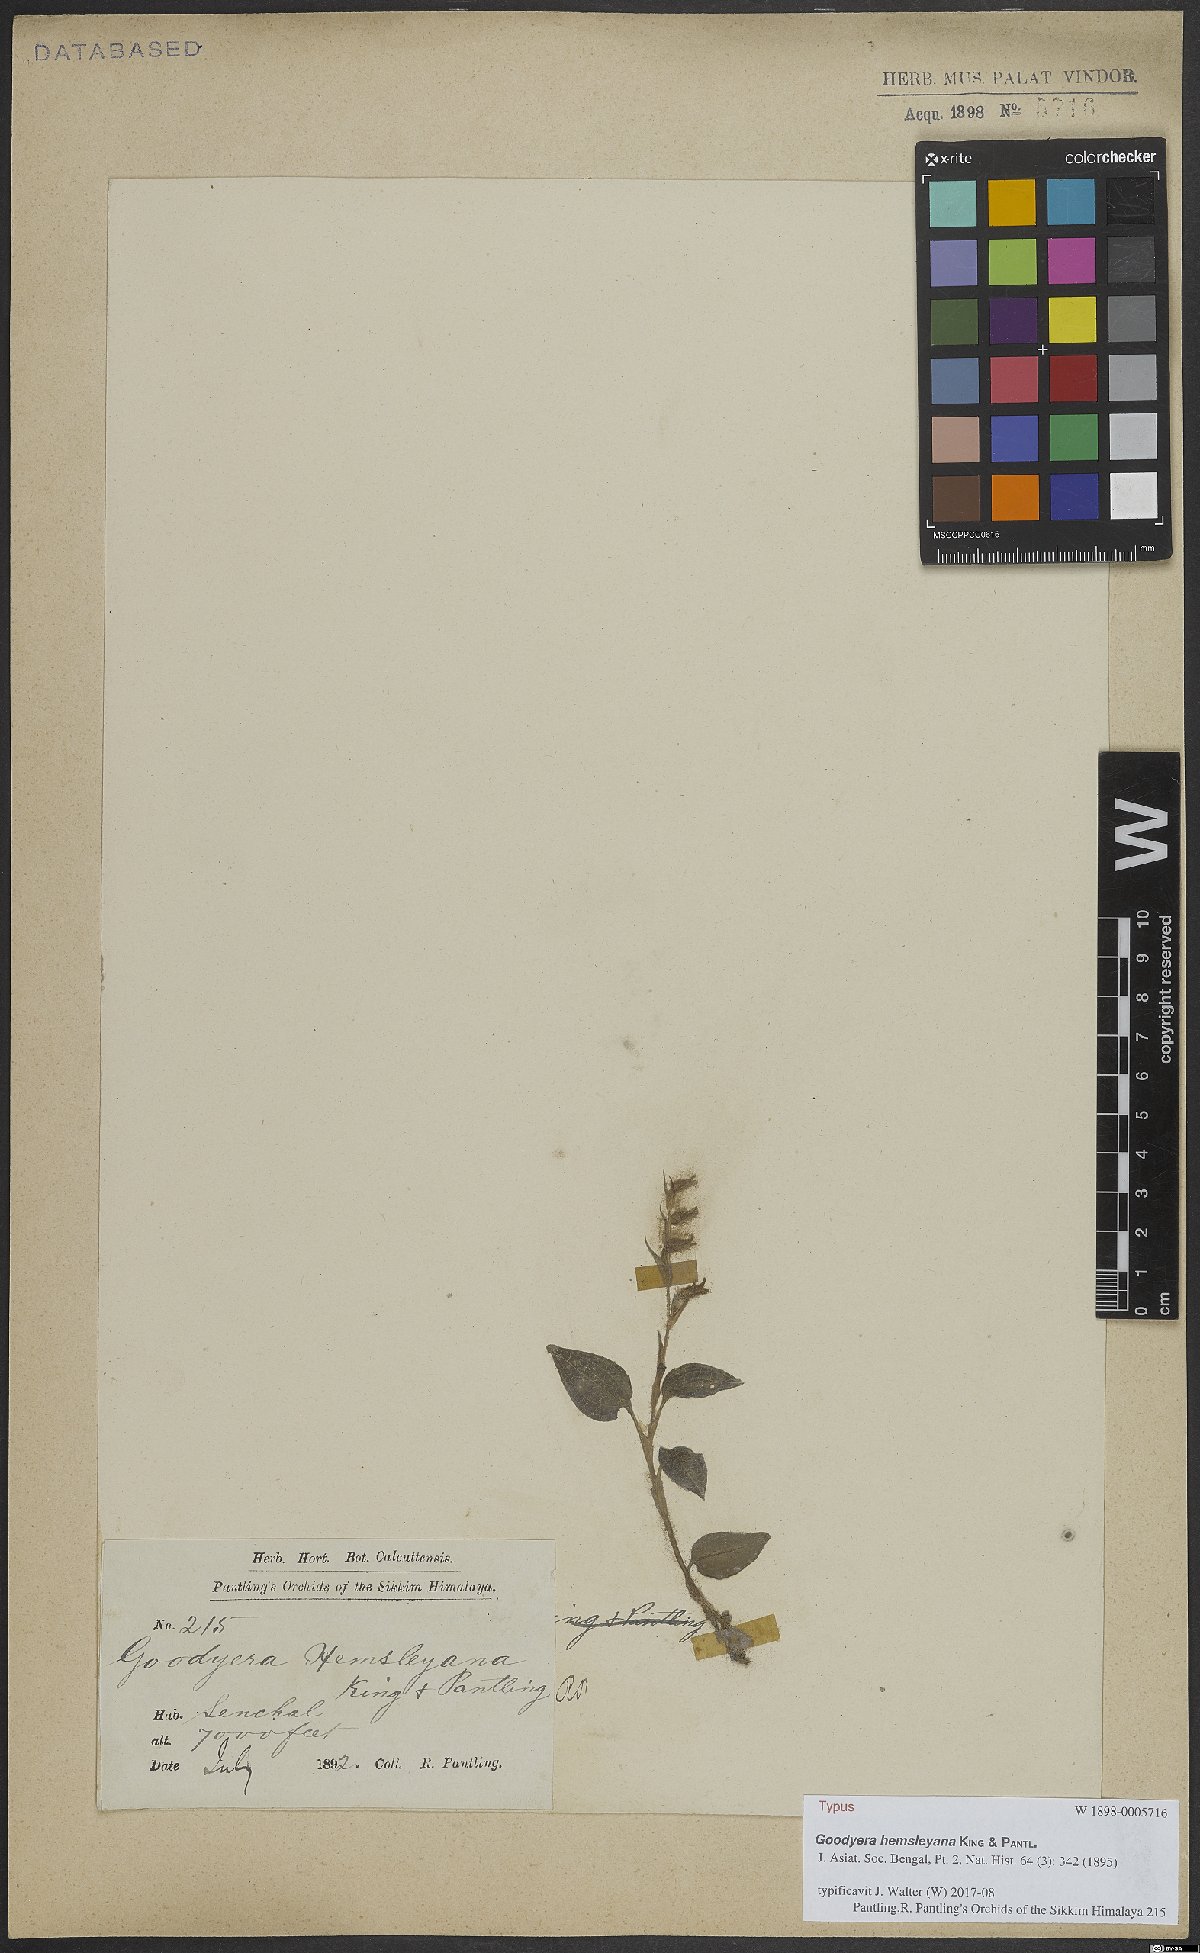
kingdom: Plantae
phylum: Tracheophyta
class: Liliopsida
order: Asparagales
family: Orchidaceae
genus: Goodyera
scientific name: Goodyera hemsleyana
